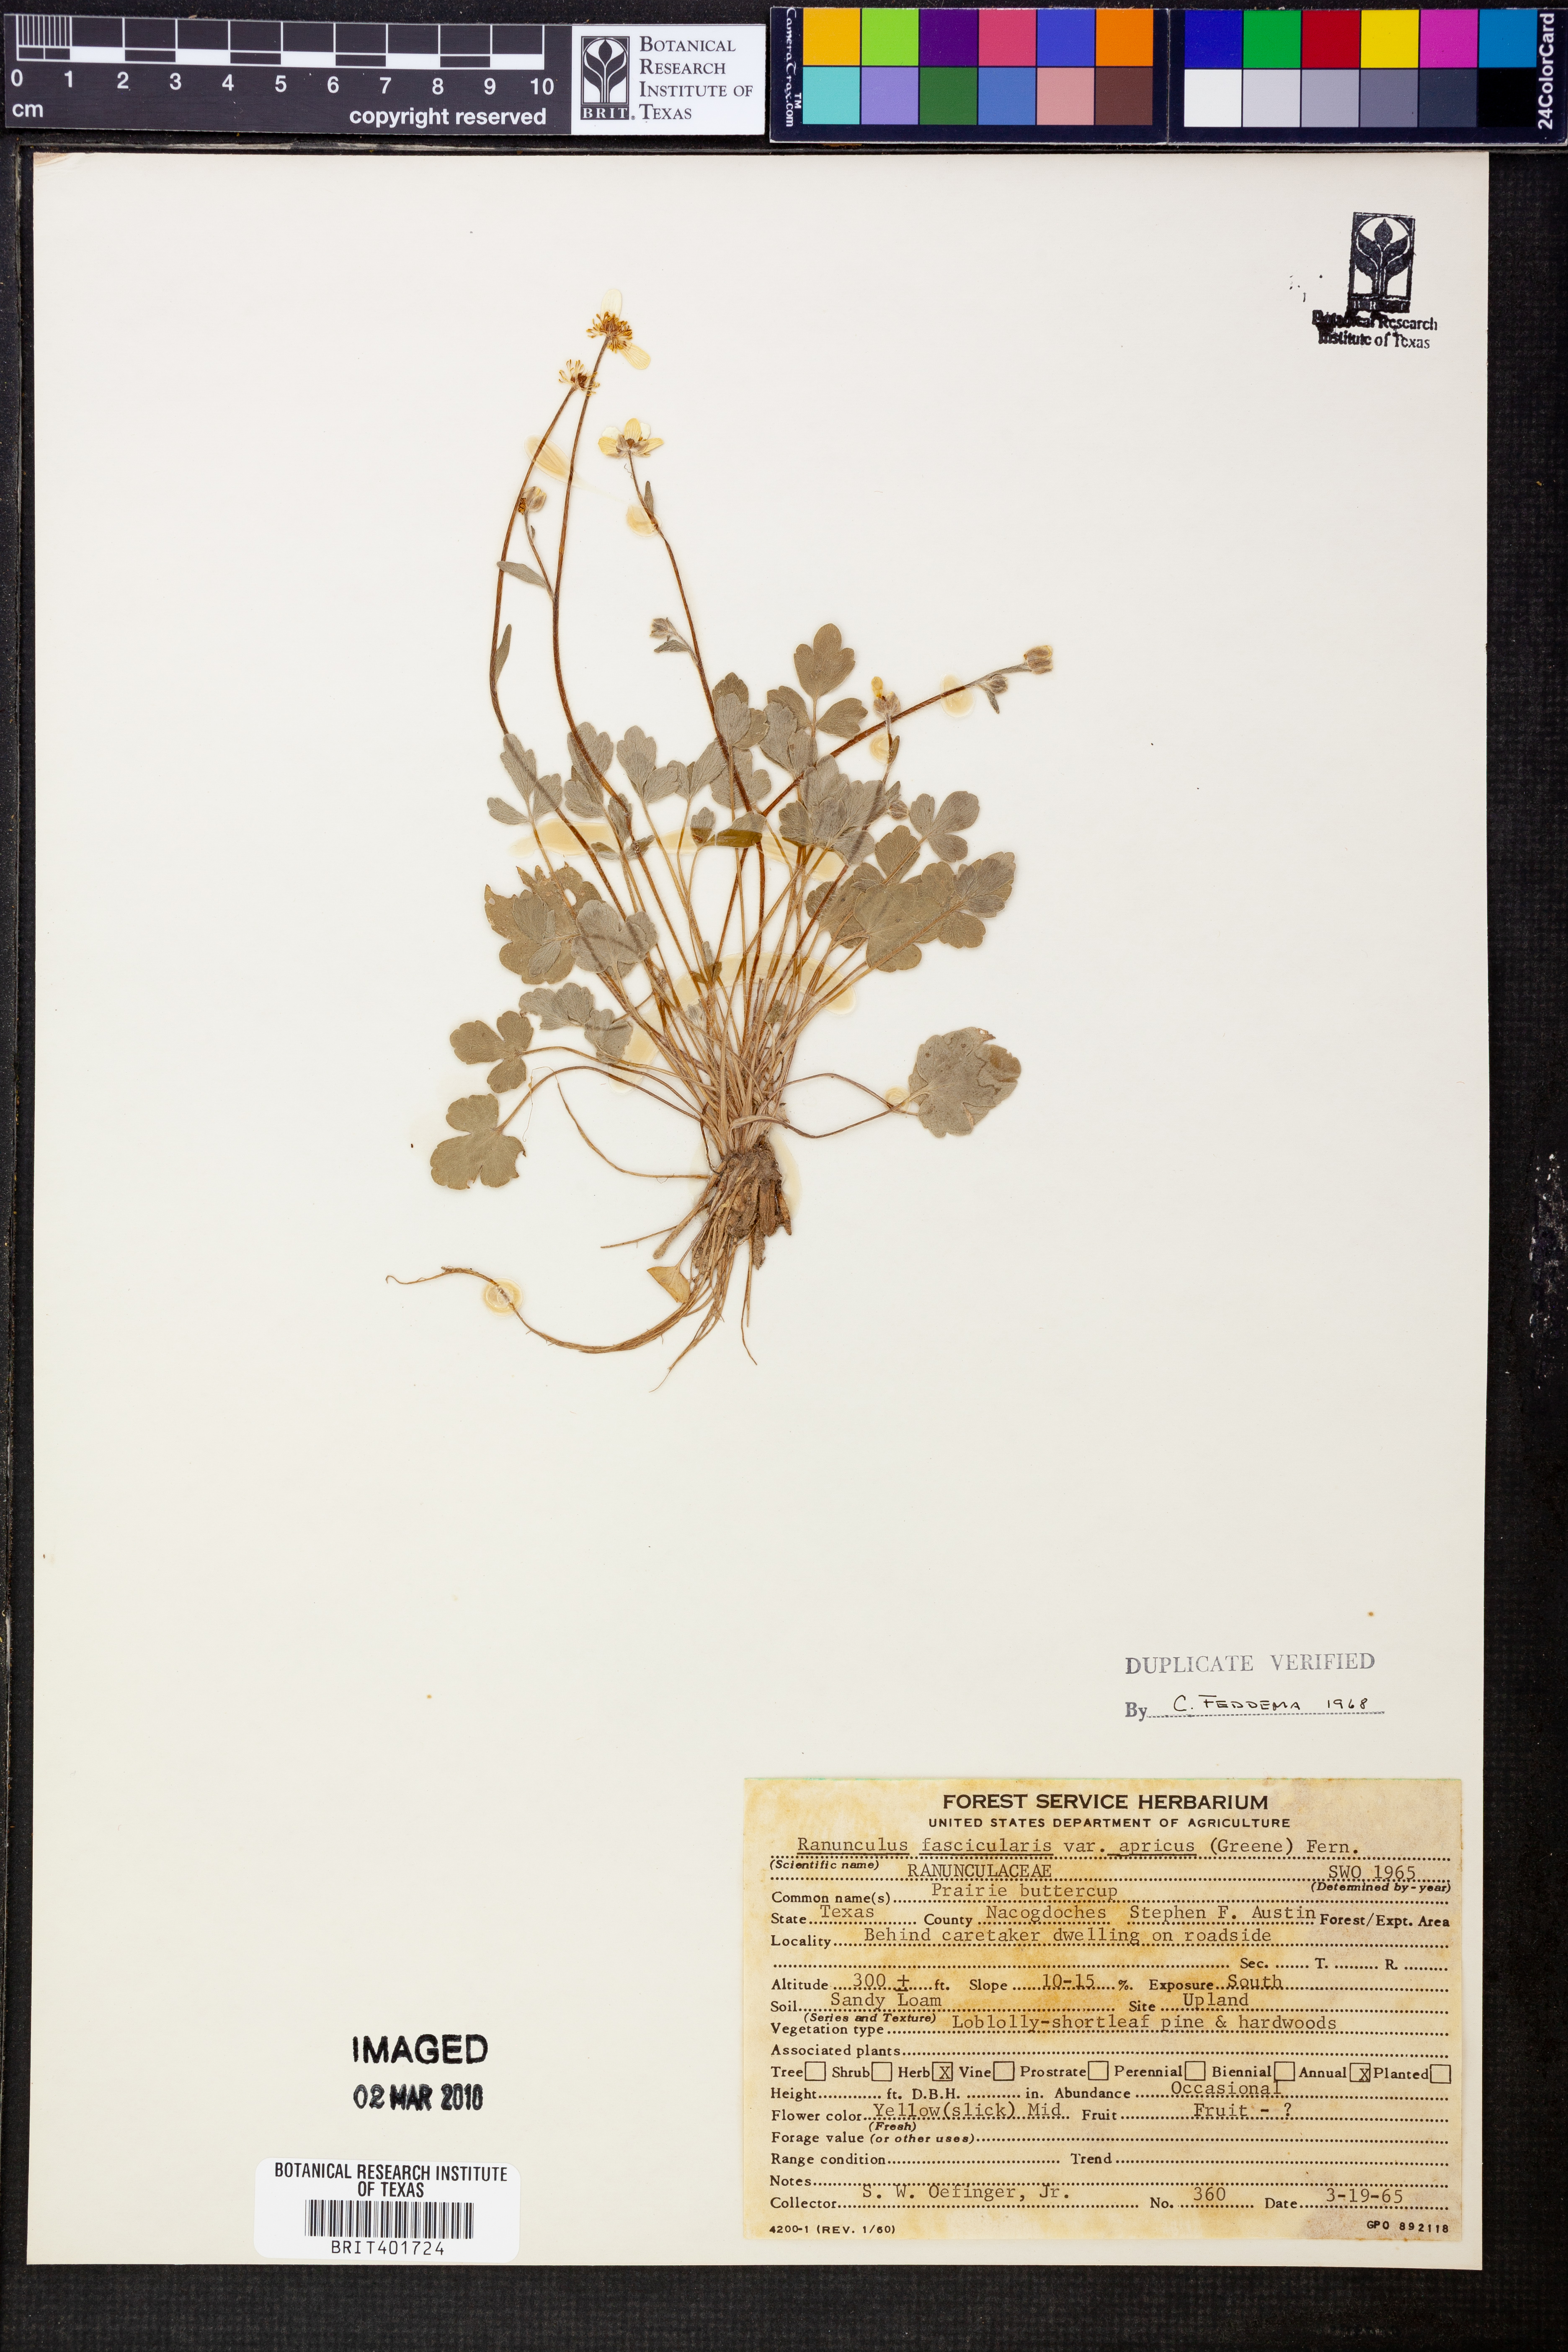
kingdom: Plantae
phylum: Tracheophyta
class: Magnoliopsida
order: Ranunculales
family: Ranunculaceae
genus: Ranunculus
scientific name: Ranunculus fascicularis
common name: Early buttercup
